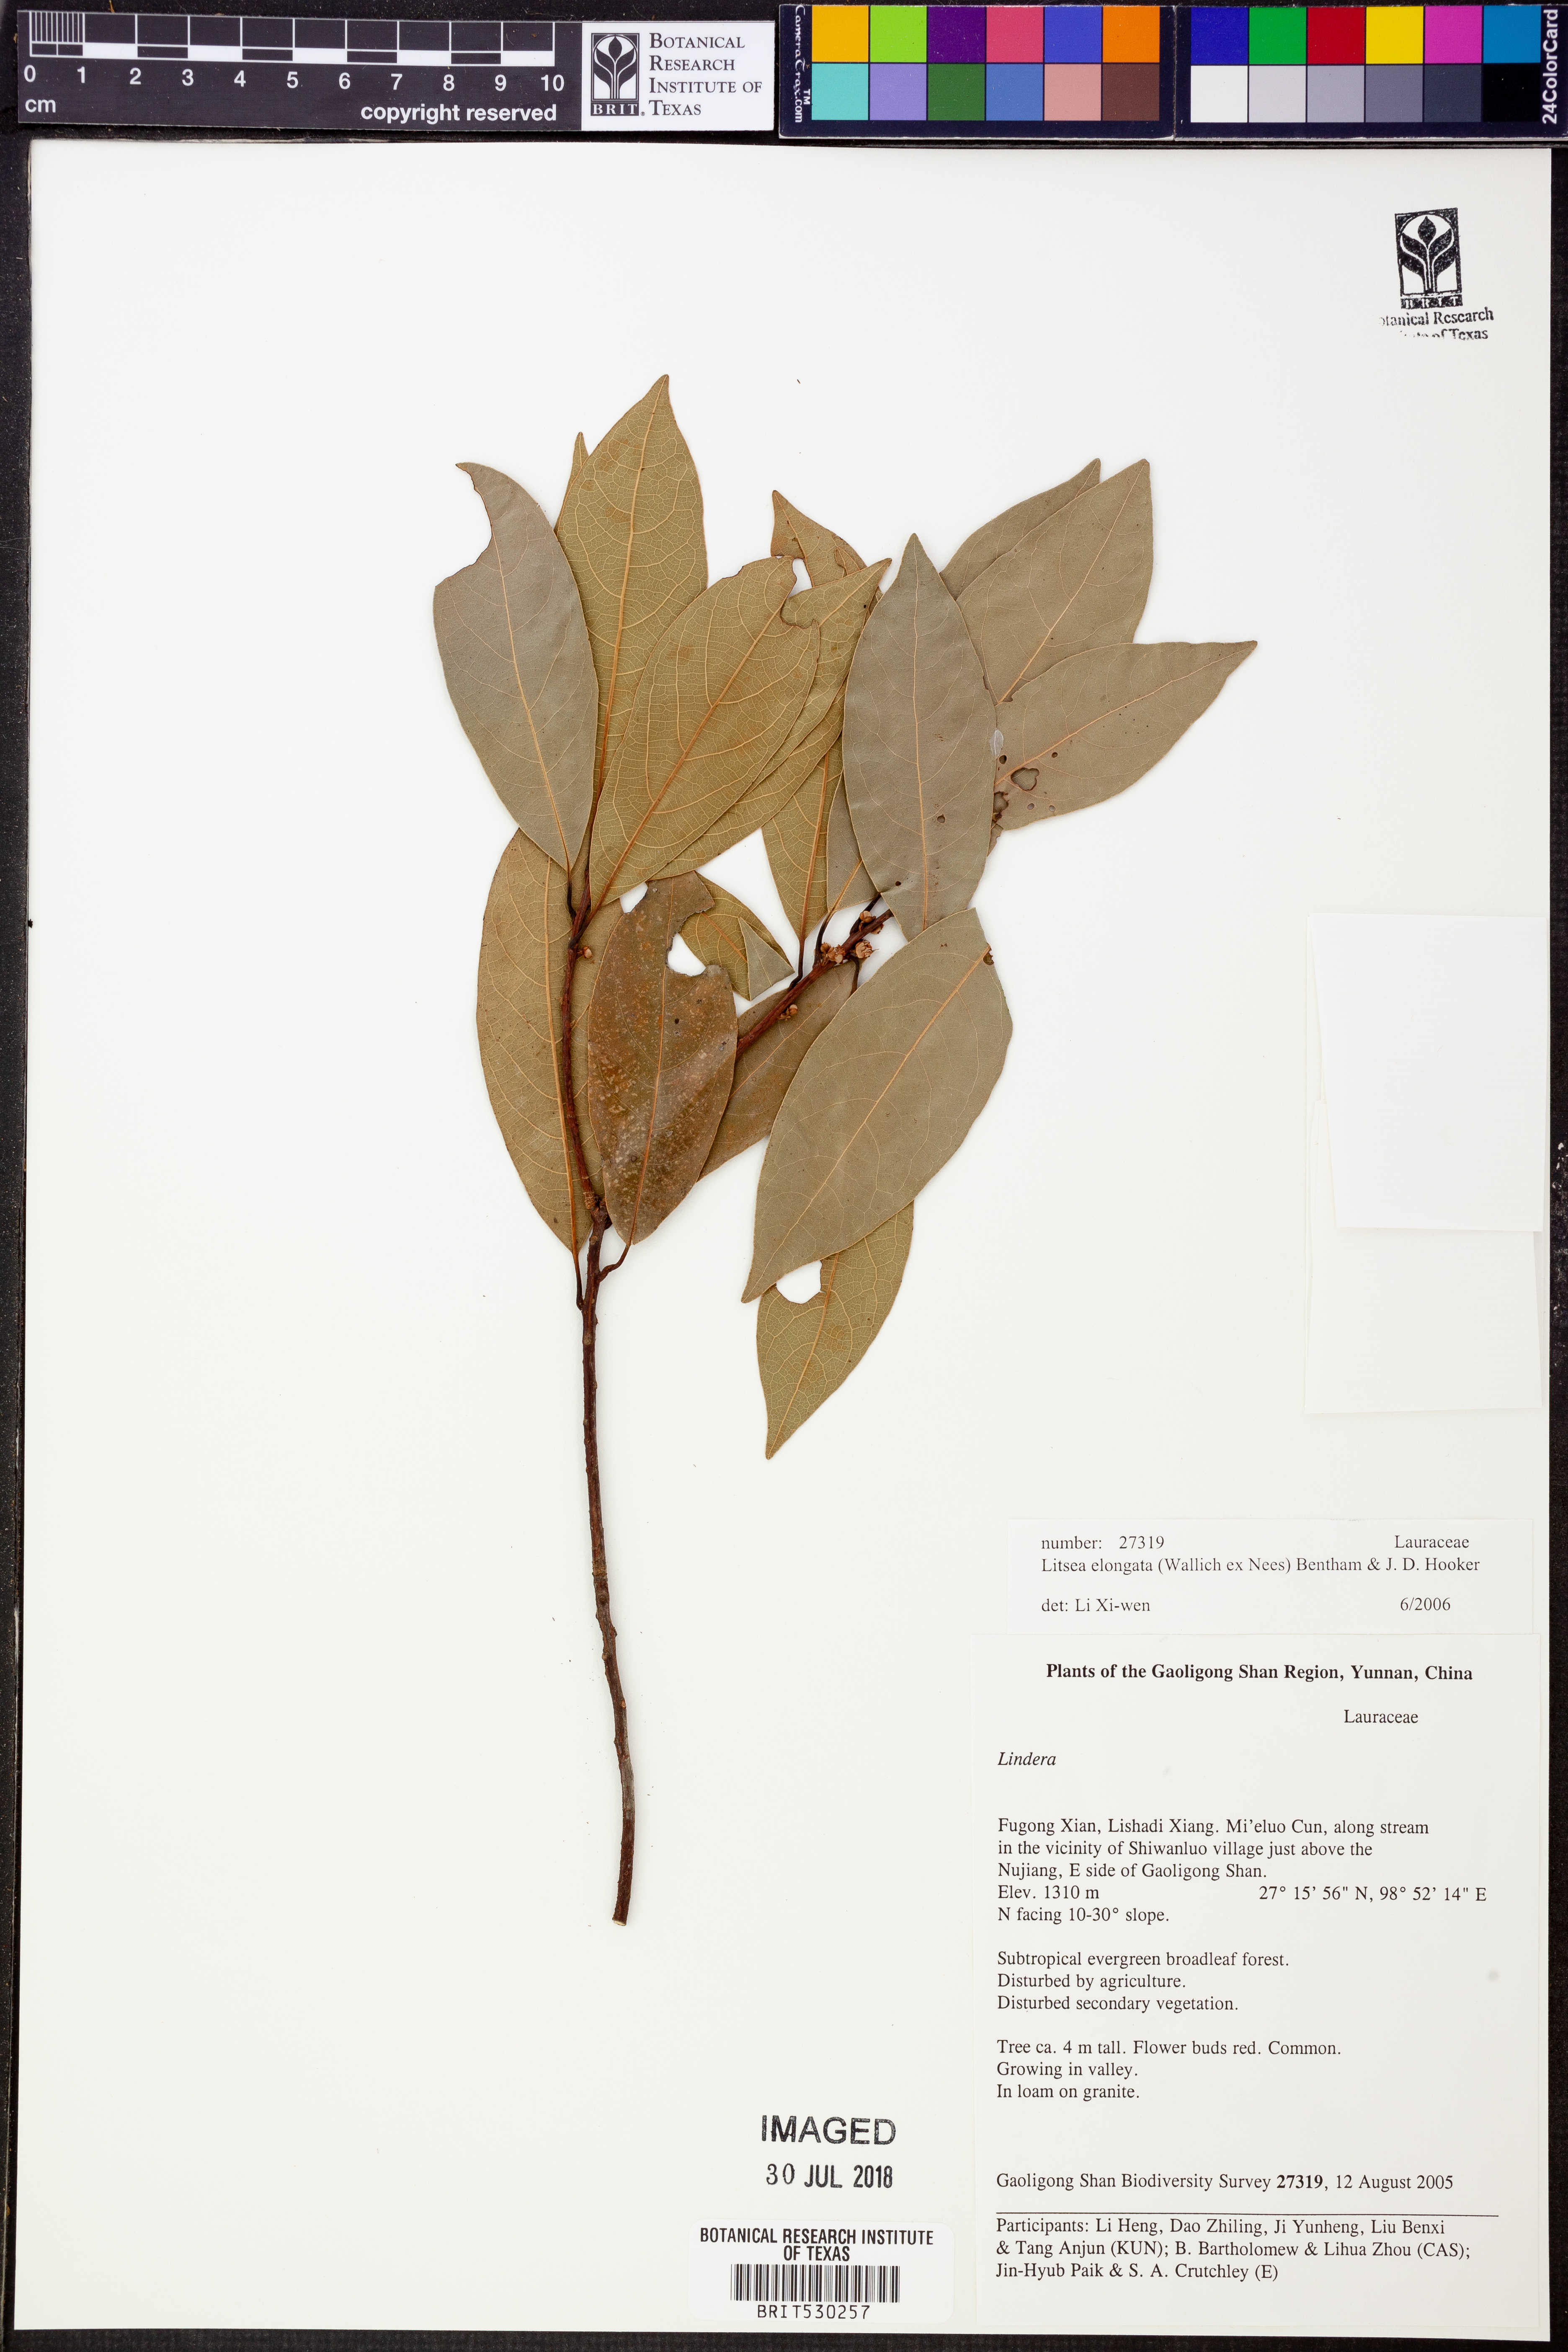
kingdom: Plantae
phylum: Tracheophyta
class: Magnoliopsida
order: Laurales
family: Lauraceae
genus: Litsea
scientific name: Litsea elongata
